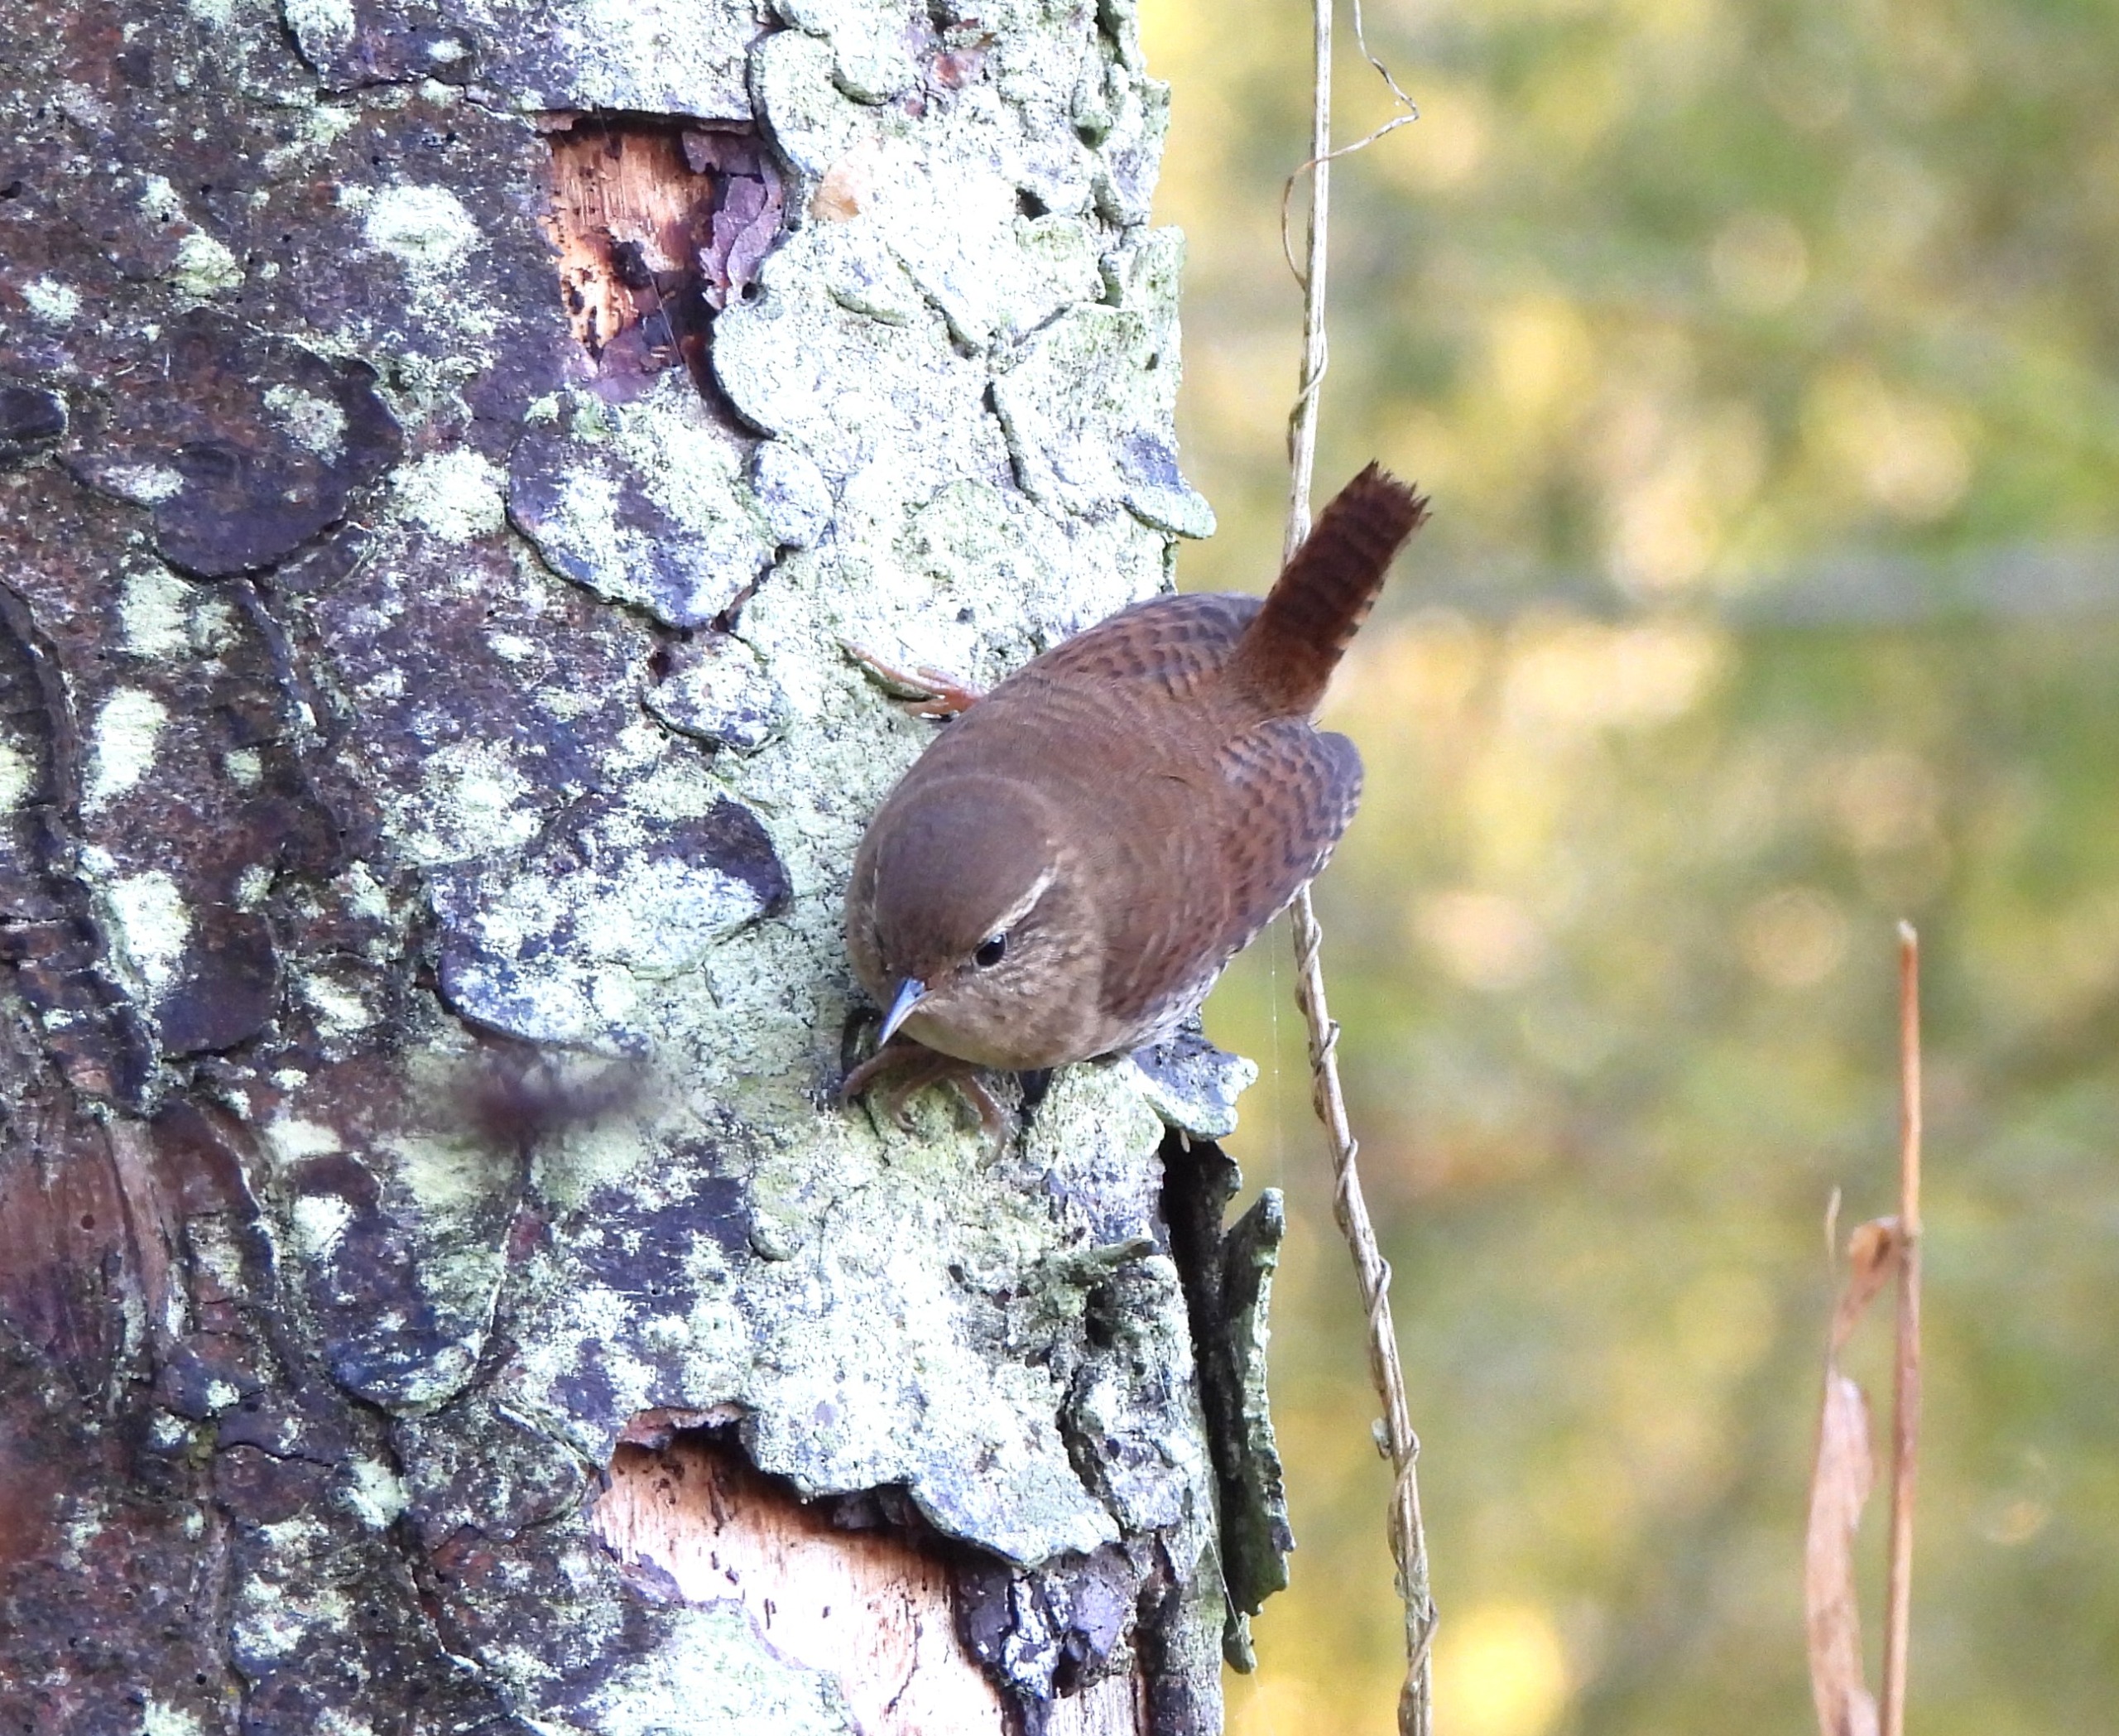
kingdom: Animalia
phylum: Chordata
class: Aves
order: Passeriformes
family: Troglodytidae
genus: Troglodytes
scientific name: Troglodytes troglodytes
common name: Gærdesmutte
